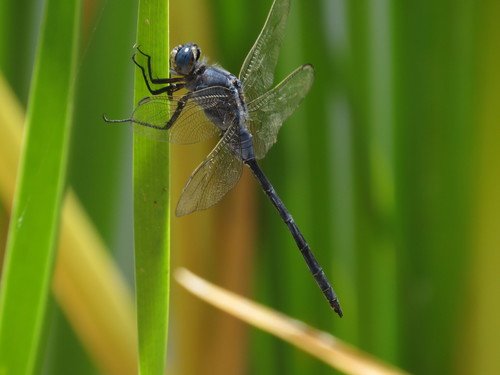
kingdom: Animalia
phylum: Arthropoda
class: Insecta
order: Odonata
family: Libellulidae
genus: Orthetrum
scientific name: Orthetrum trinacria
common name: Long skimmer
